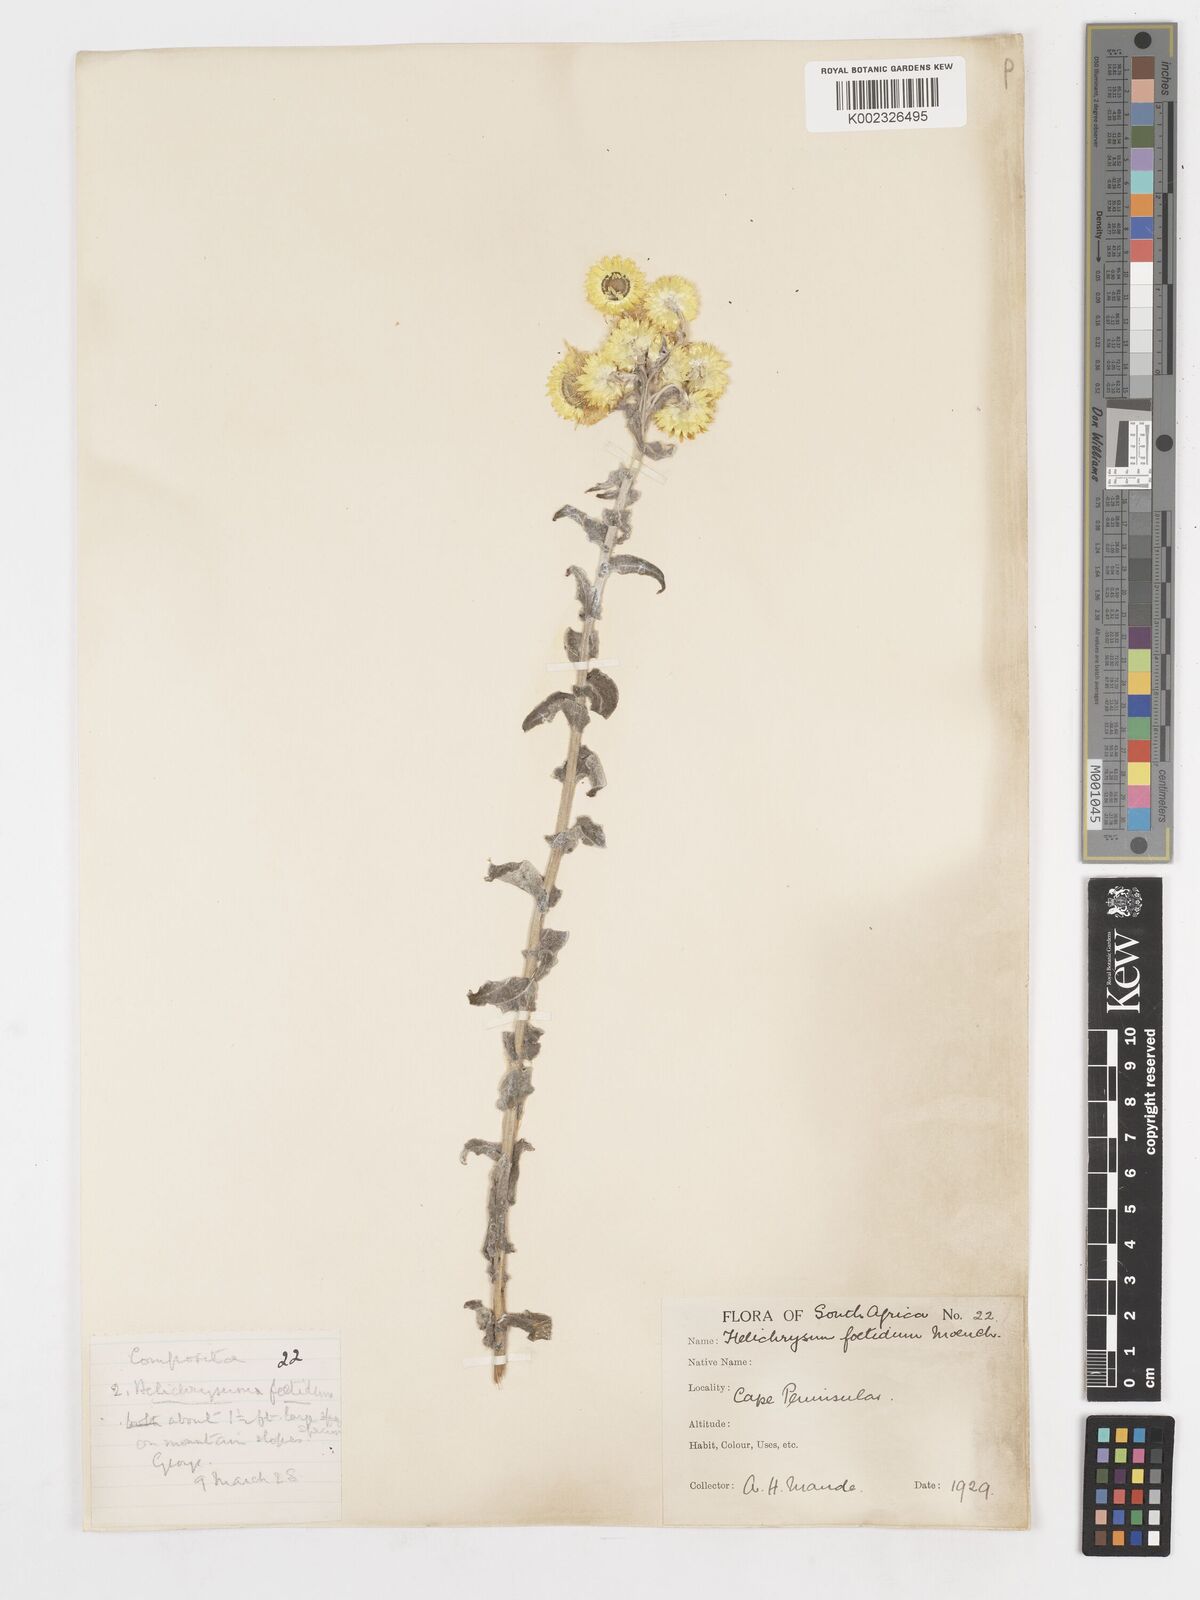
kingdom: Plantae
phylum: Tracheophyta
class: Magnoliopsida
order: Asterales
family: Asteraceae
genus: Helichrysum
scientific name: Helichrysum foetidum
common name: Stinking everlasting
